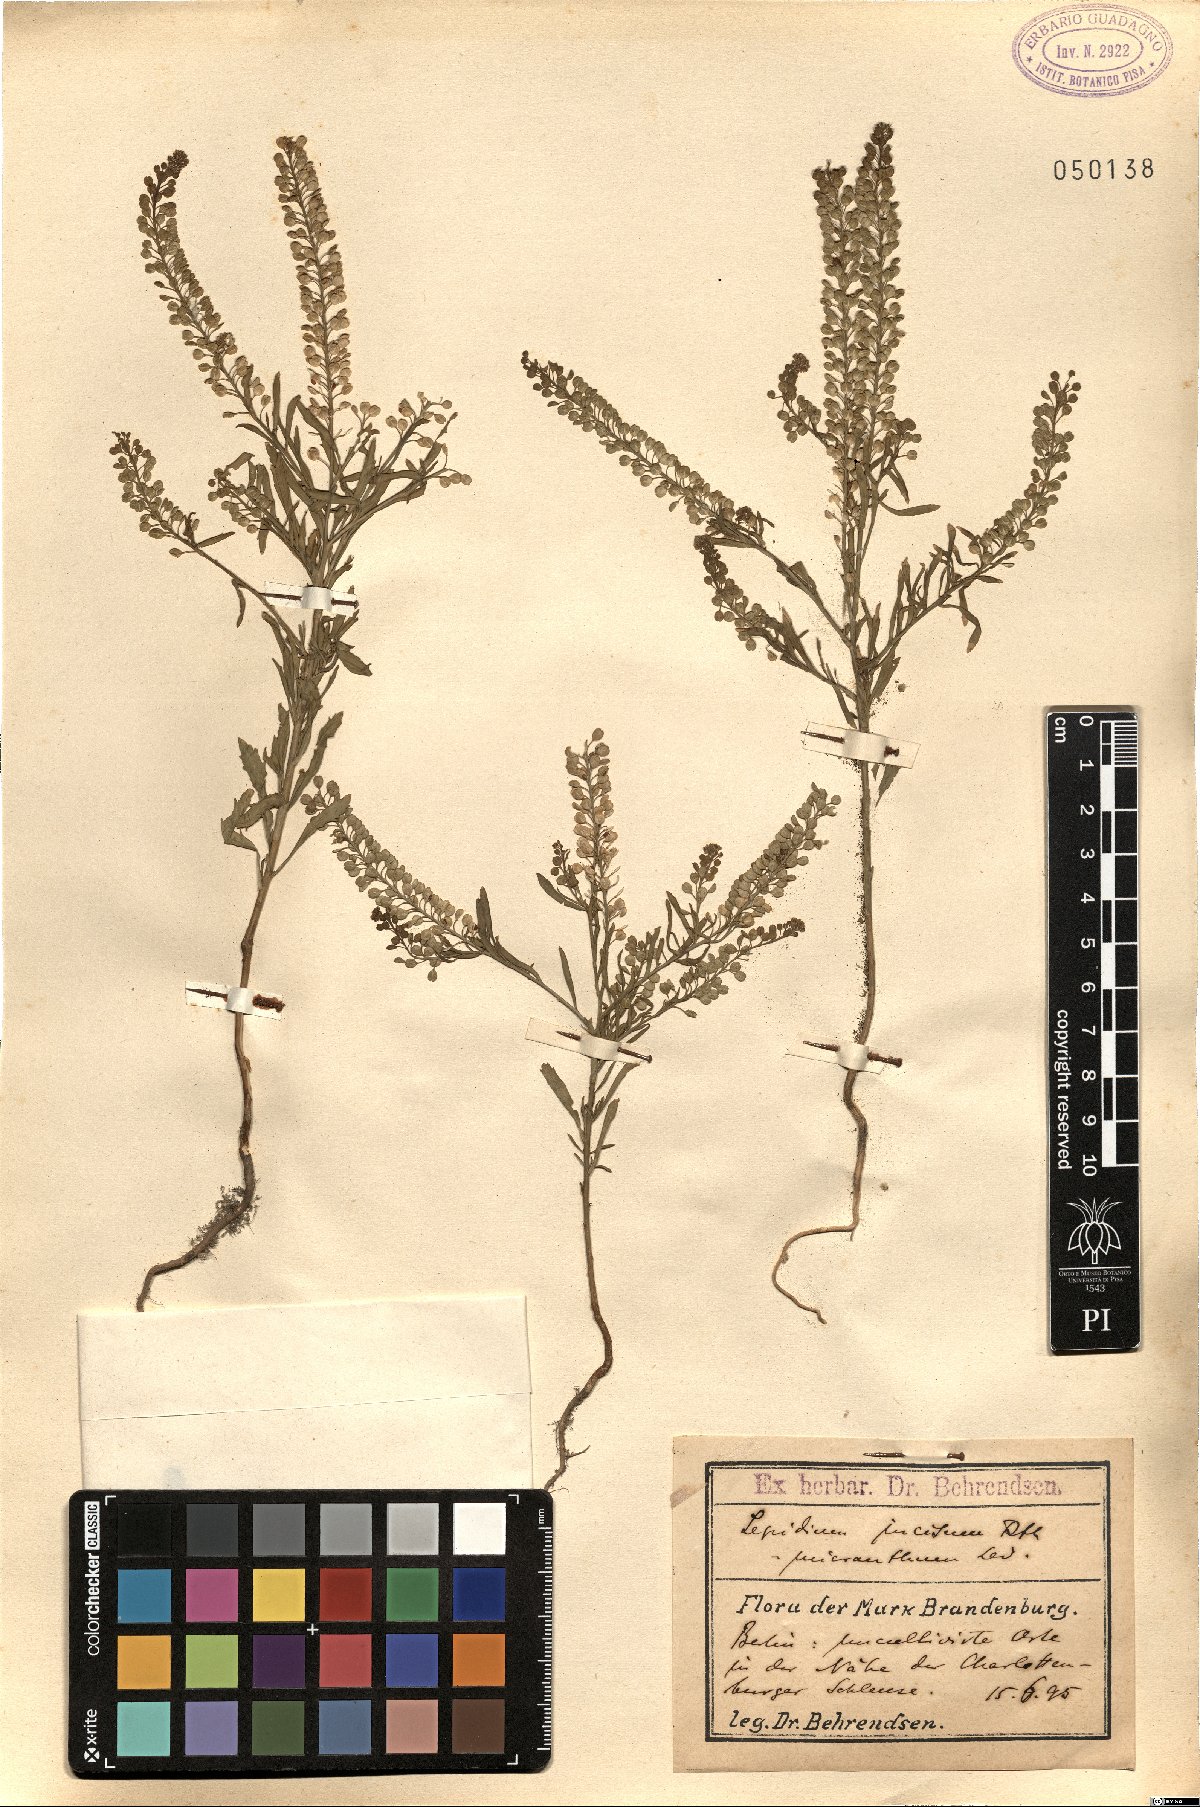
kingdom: Plantae
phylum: Tracheophyta
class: Magnoliopsida
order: Brassicales
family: Brassicaceae
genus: Lepidium
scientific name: Lepidium
